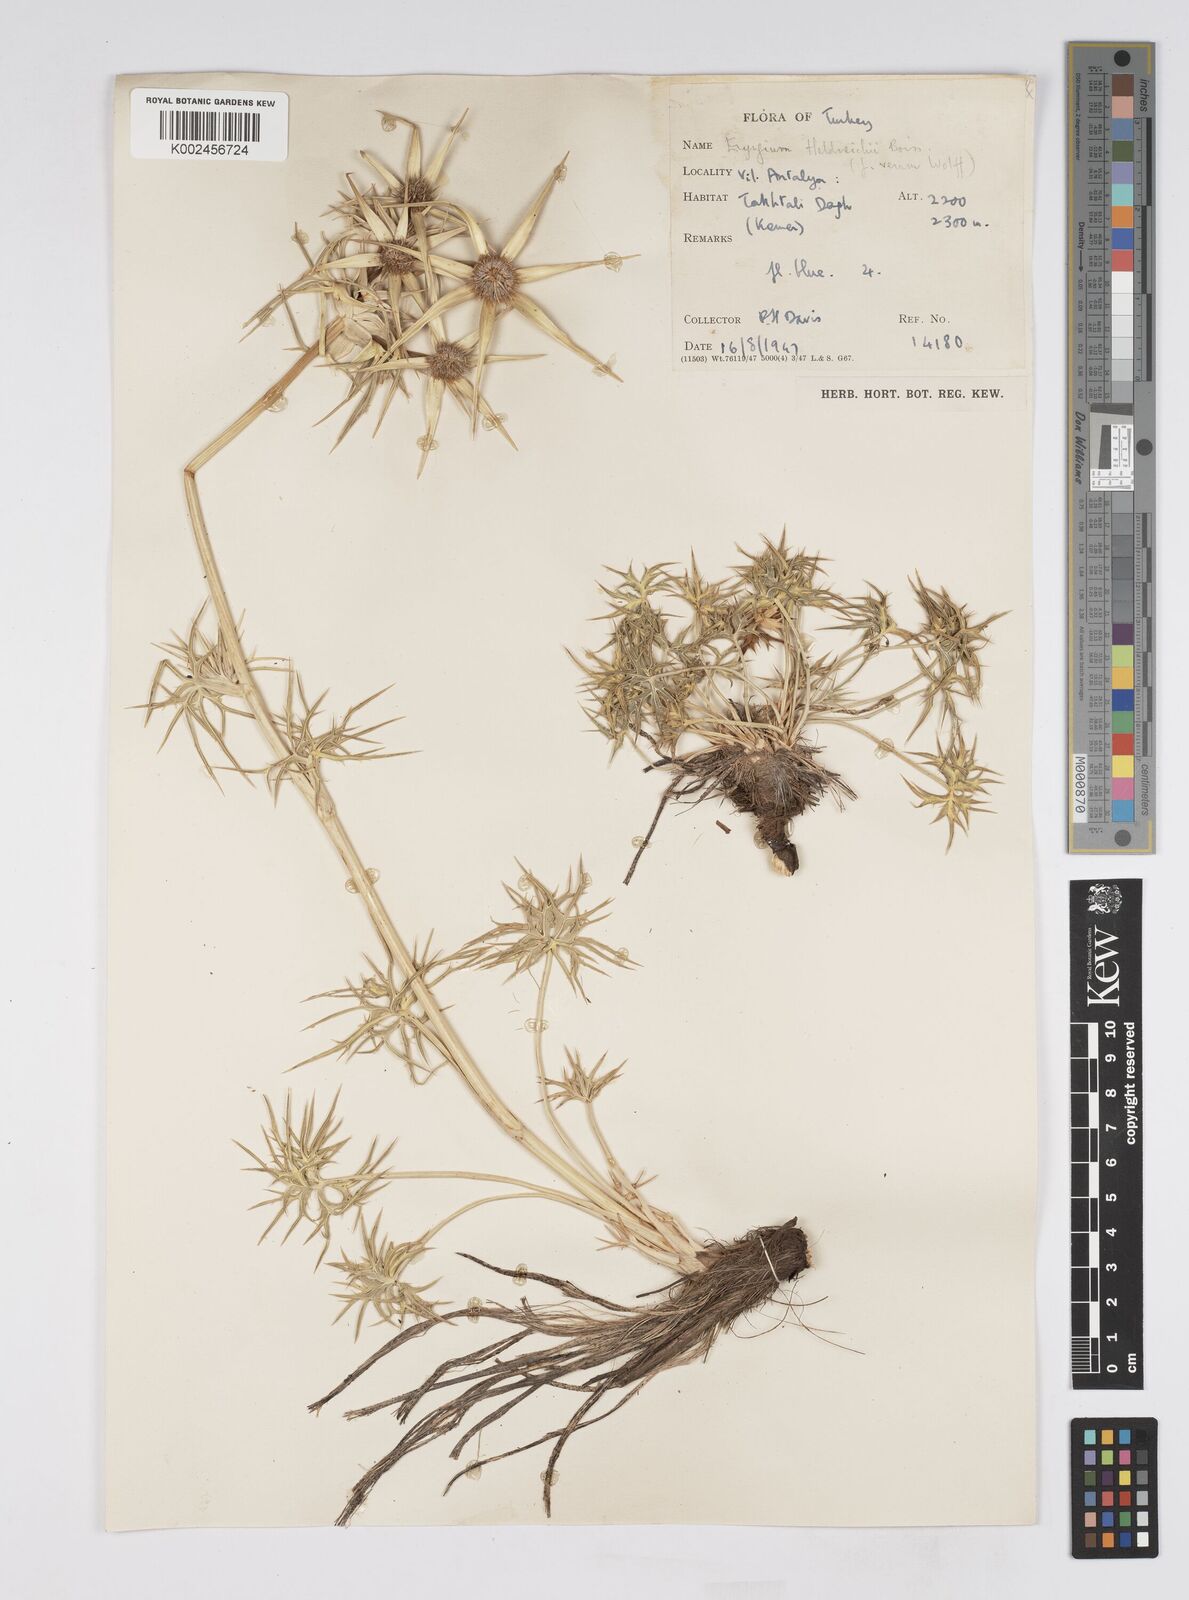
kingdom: Plantae
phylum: Tracheophyta
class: Magnoliopsida
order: Apiales
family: Apiaceae
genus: Eryngium
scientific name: Eryngium heldreichii
